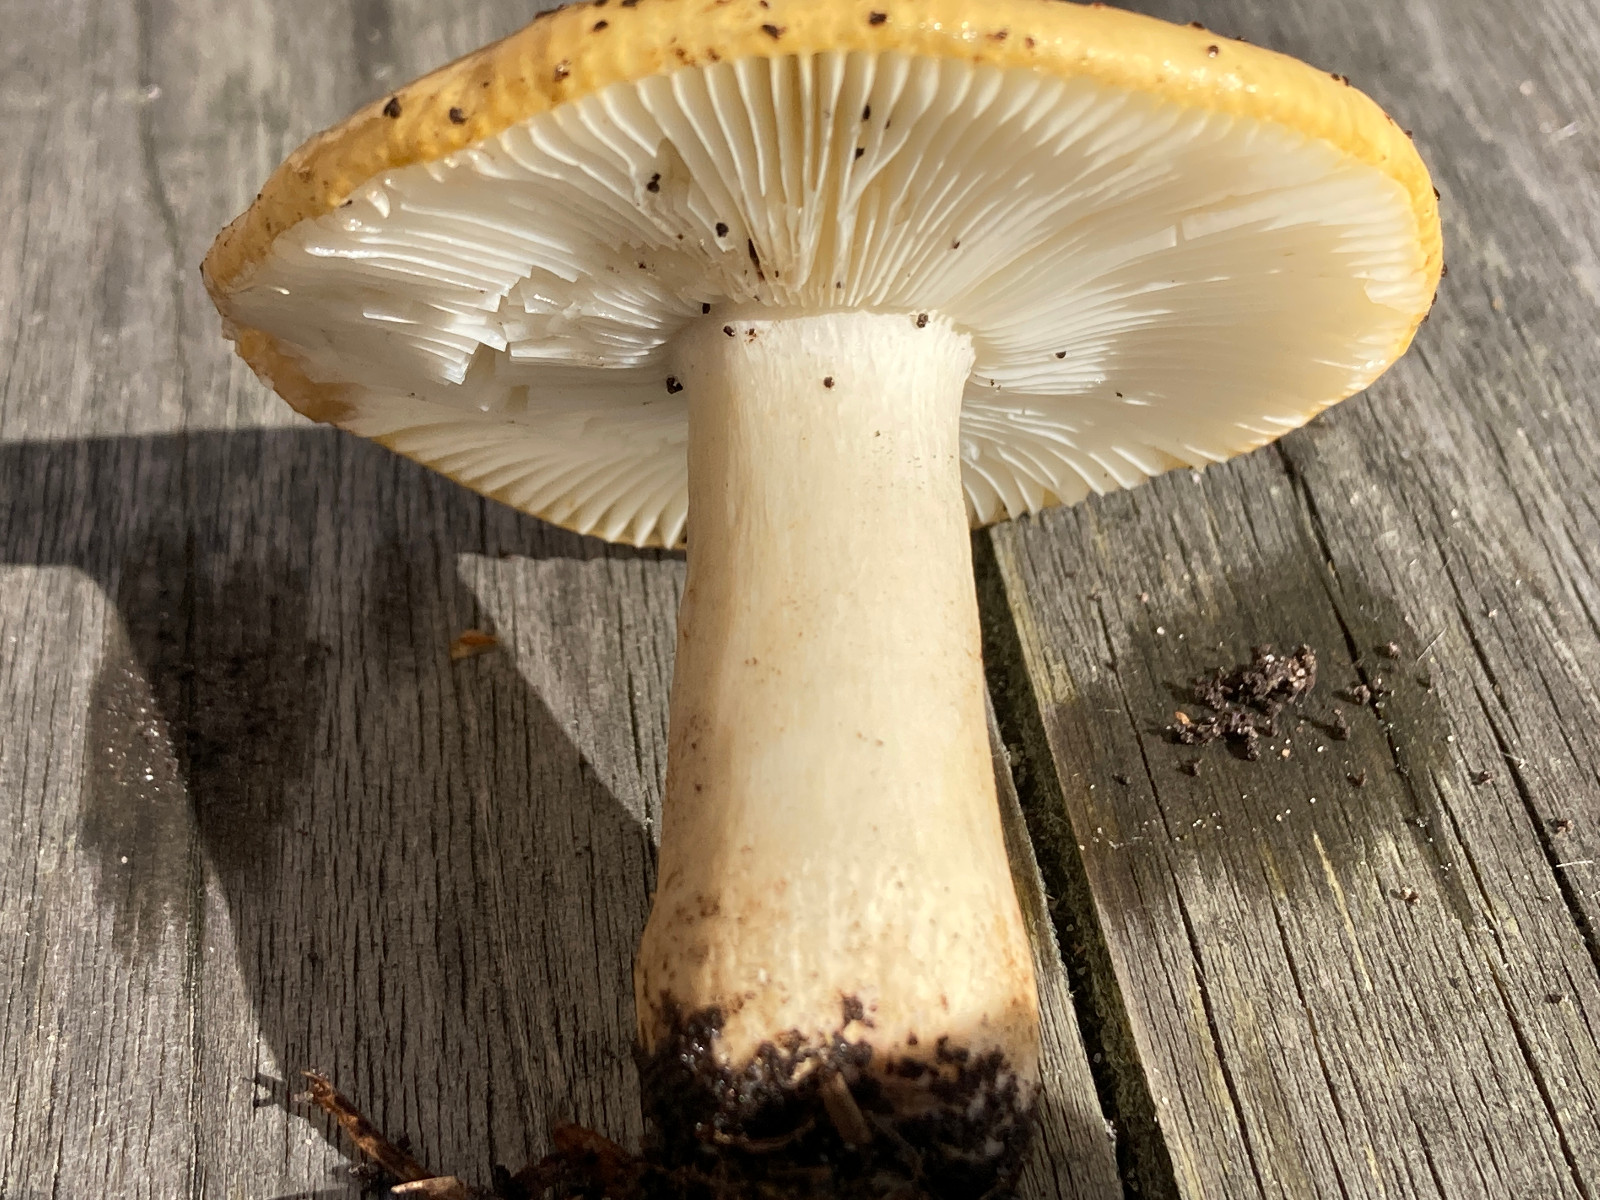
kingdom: Fungi
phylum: Basidiomycota
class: Agaricomycetes
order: Russulales
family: Russulaceae
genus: Russula
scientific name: Russula fellea
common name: galde-skørhat
